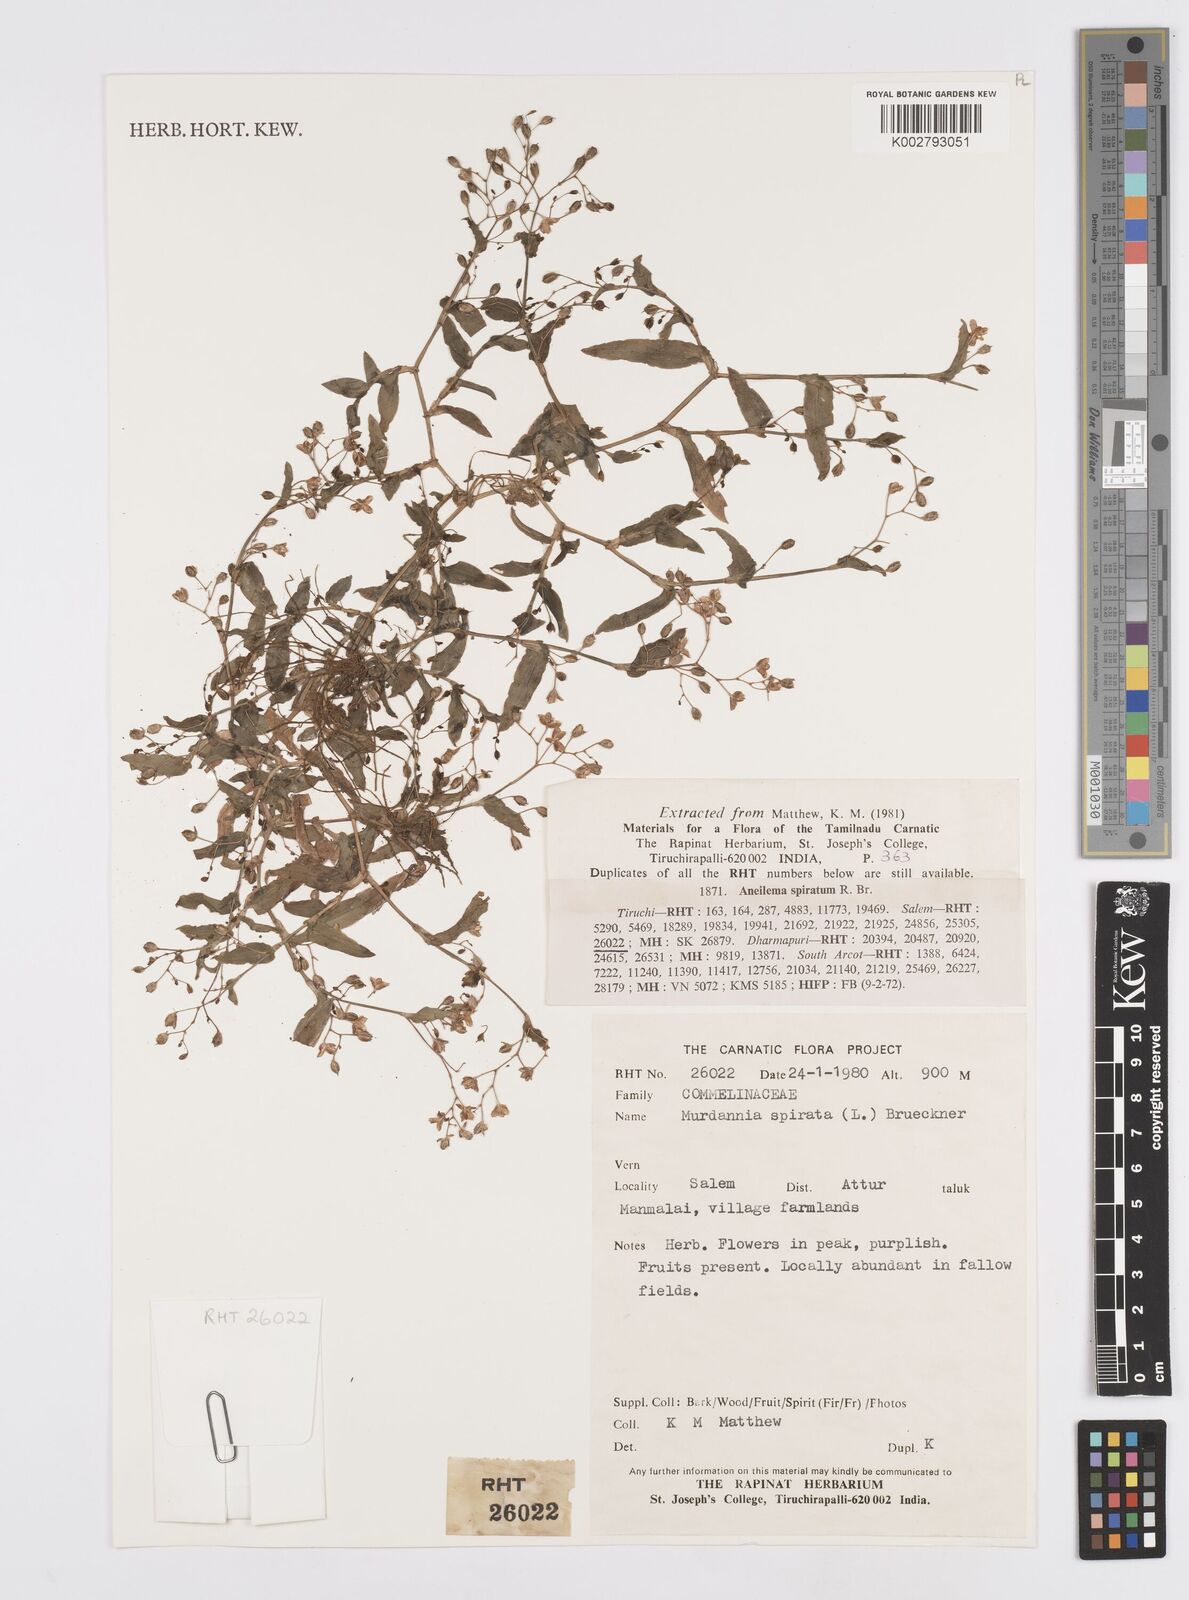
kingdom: Plantae
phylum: Tracheophyta
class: Liliopsida
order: Commelinales
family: Commelinaceae
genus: Murdannia
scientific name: Murdannia spirata
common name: Asiatic dewflower
